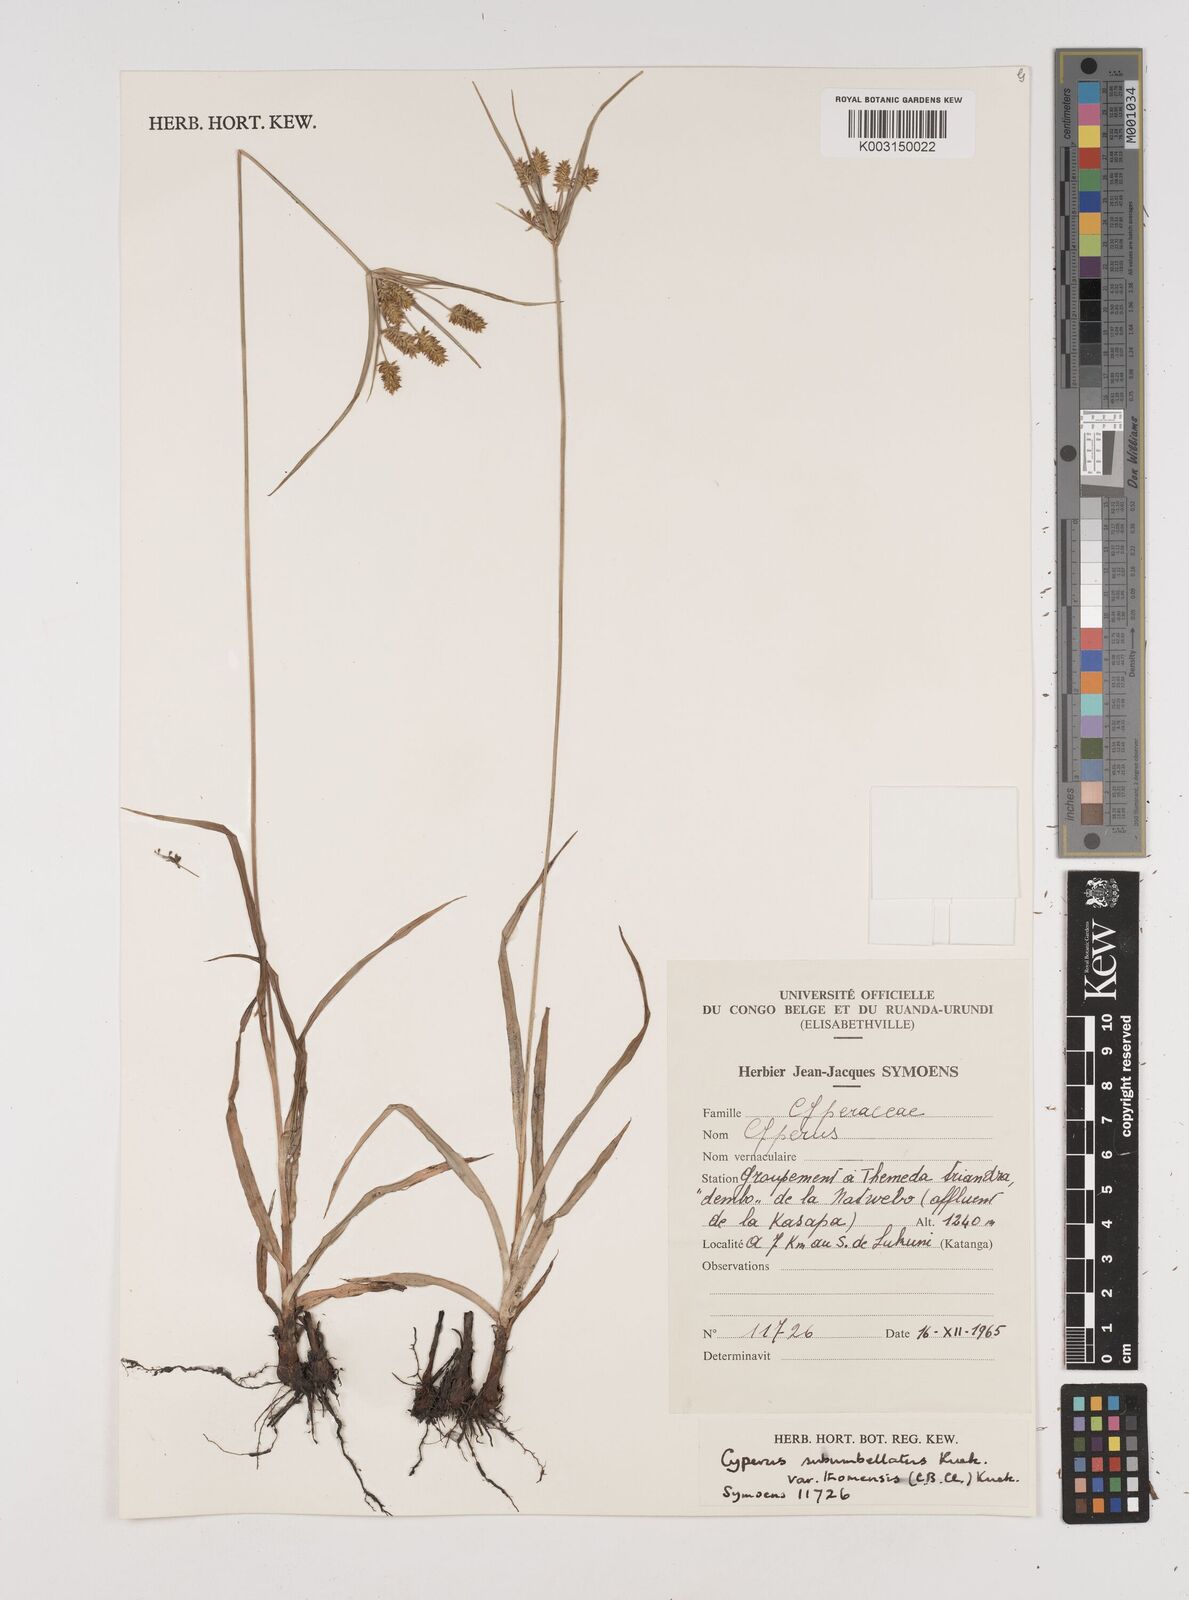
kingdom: Plantae
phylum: Tracheophyta
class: Liliopsida
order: Poales
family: Cyperaceae
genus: Cyperus
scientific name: Cyperus cyperoides
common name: Pacific island flat sedge
